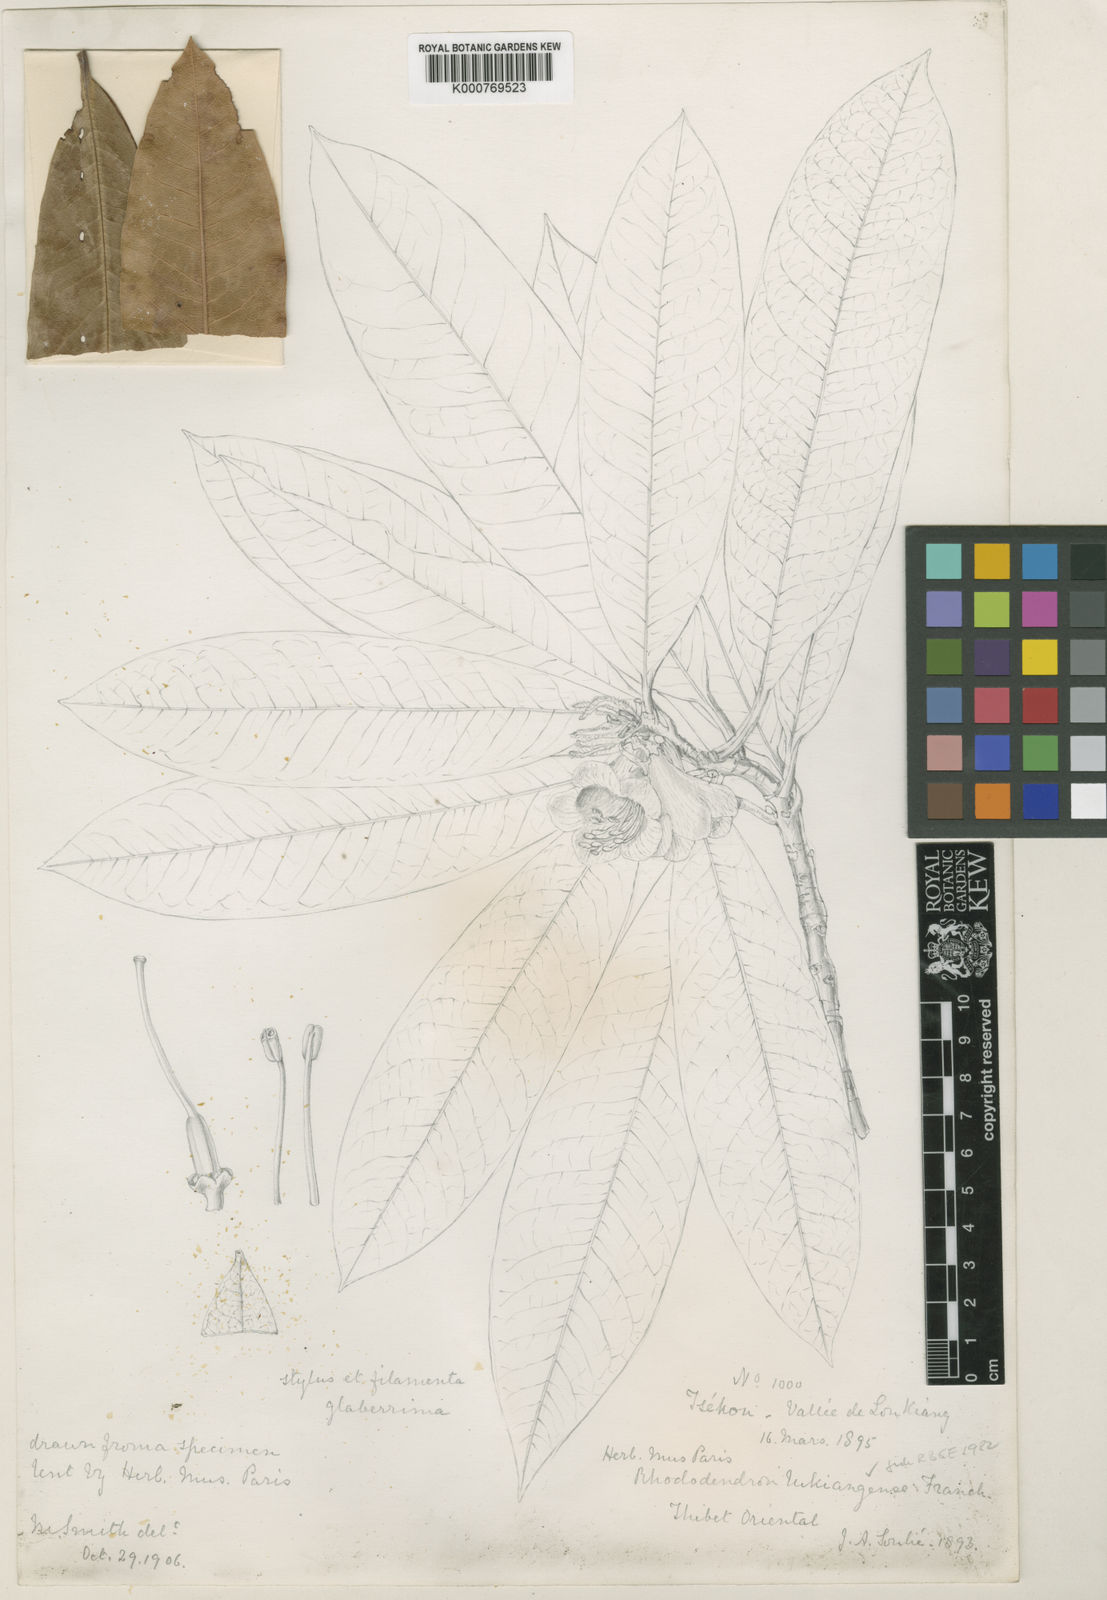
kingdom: Plantae
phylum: Tracheophyta
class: Magnoliopsida
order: Ericales
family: Ericaceae
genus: Rhododendron
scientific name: Rhododendron lukiangense
